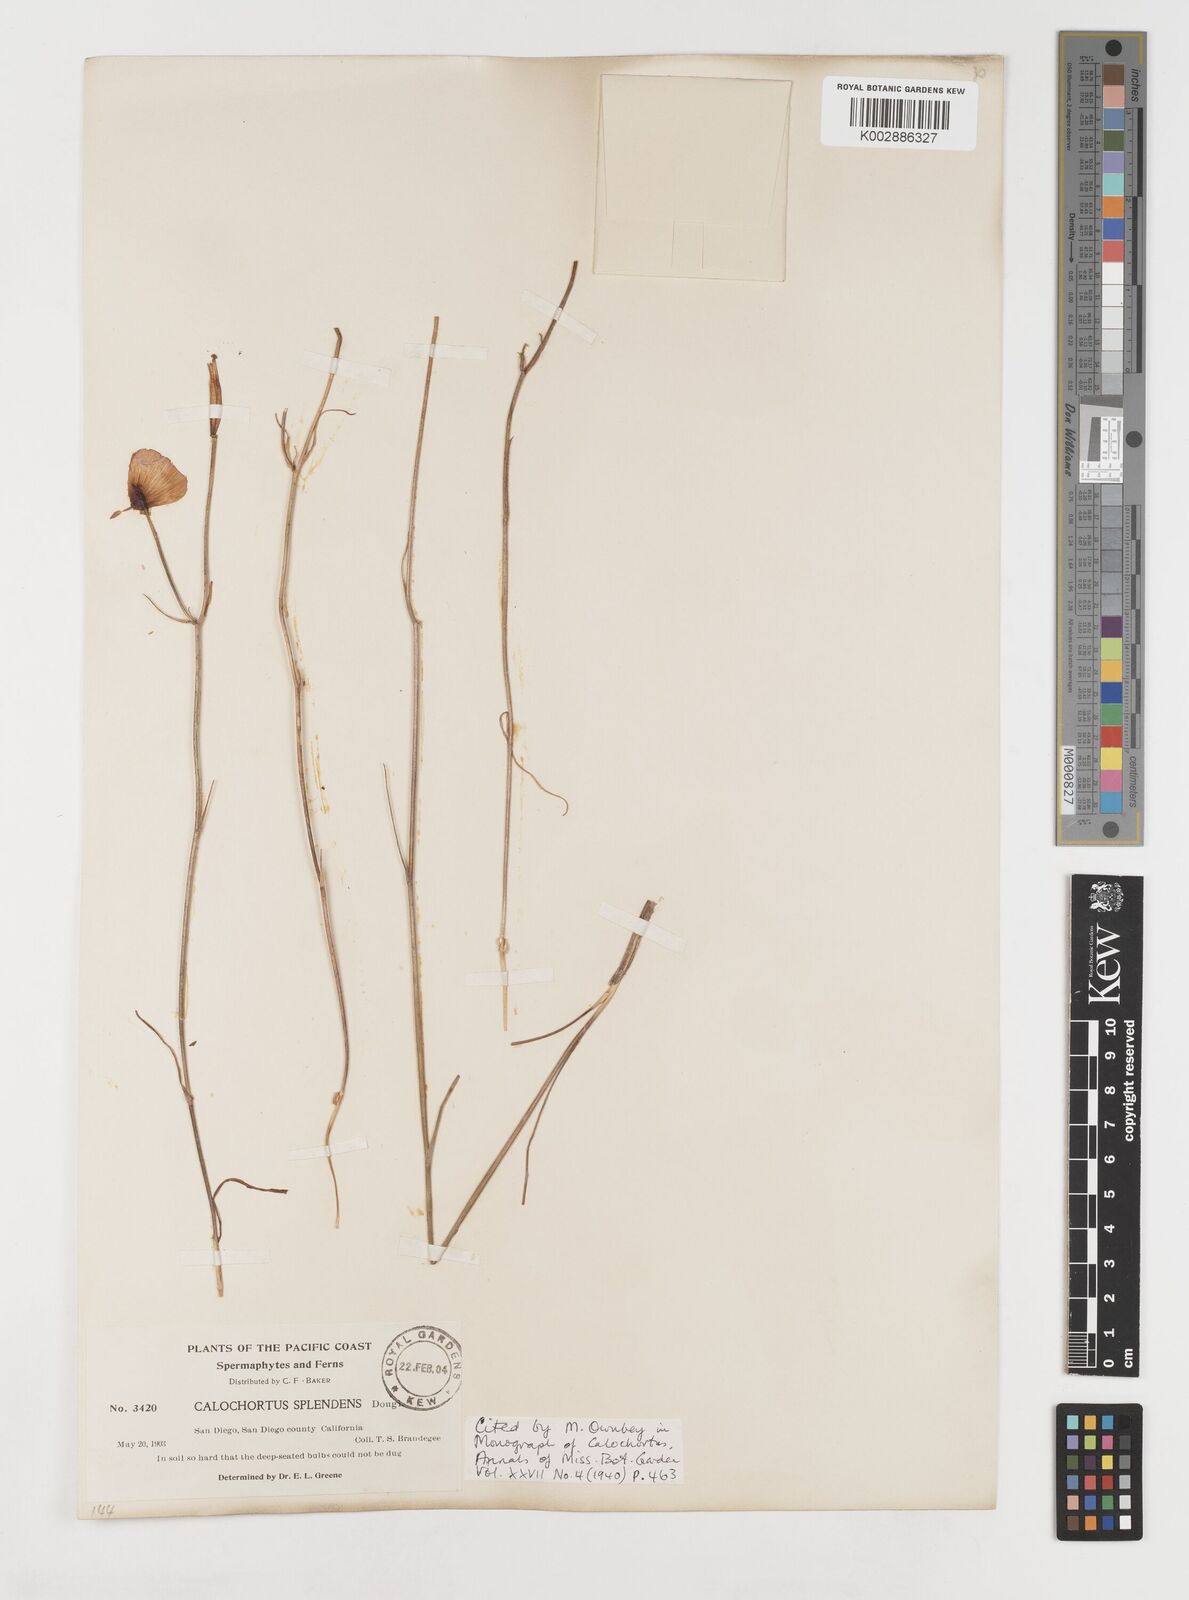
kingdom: Plantae
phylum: Tracheophyta
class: Liliopsida
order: Liliales
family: Liliaceae
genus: Calochortus
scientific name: Calochortus splendens
